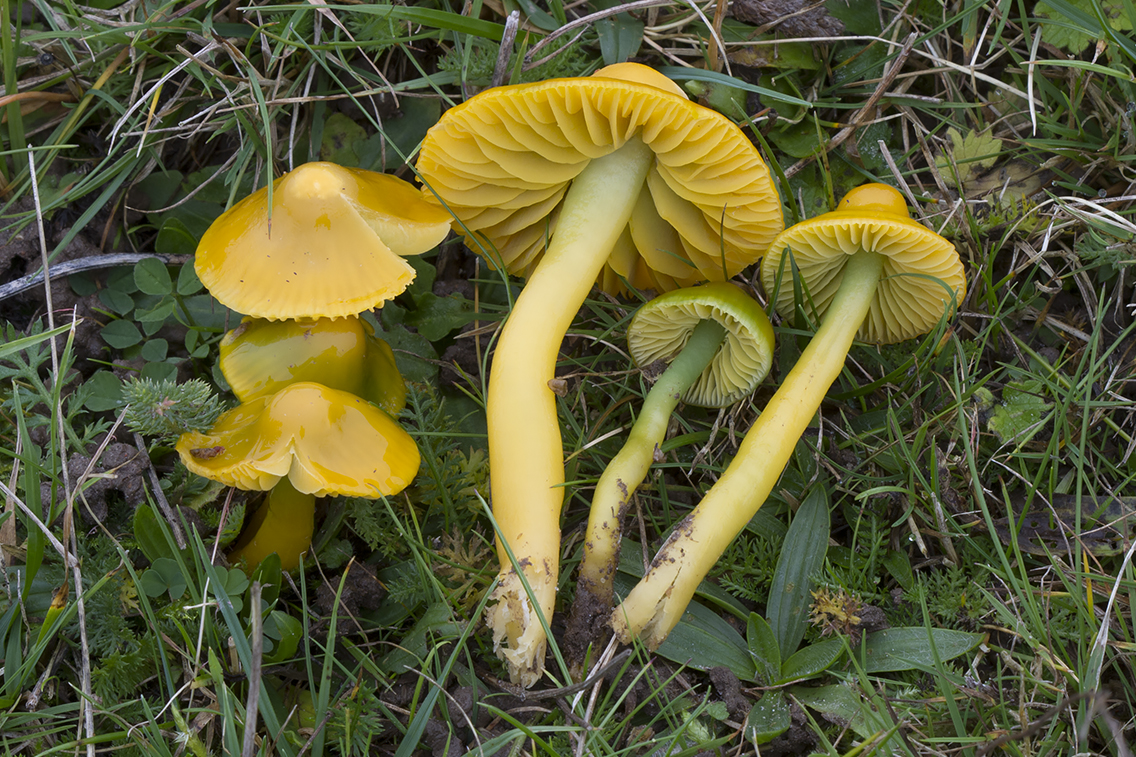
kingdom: Fungi
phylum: Basidiomycota
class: Agaricomycetes
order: Agaricales
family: Hygrophoraceae
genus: Gliophorus
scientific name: Gliophorus psittacinus
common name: papegøje-vokshat
